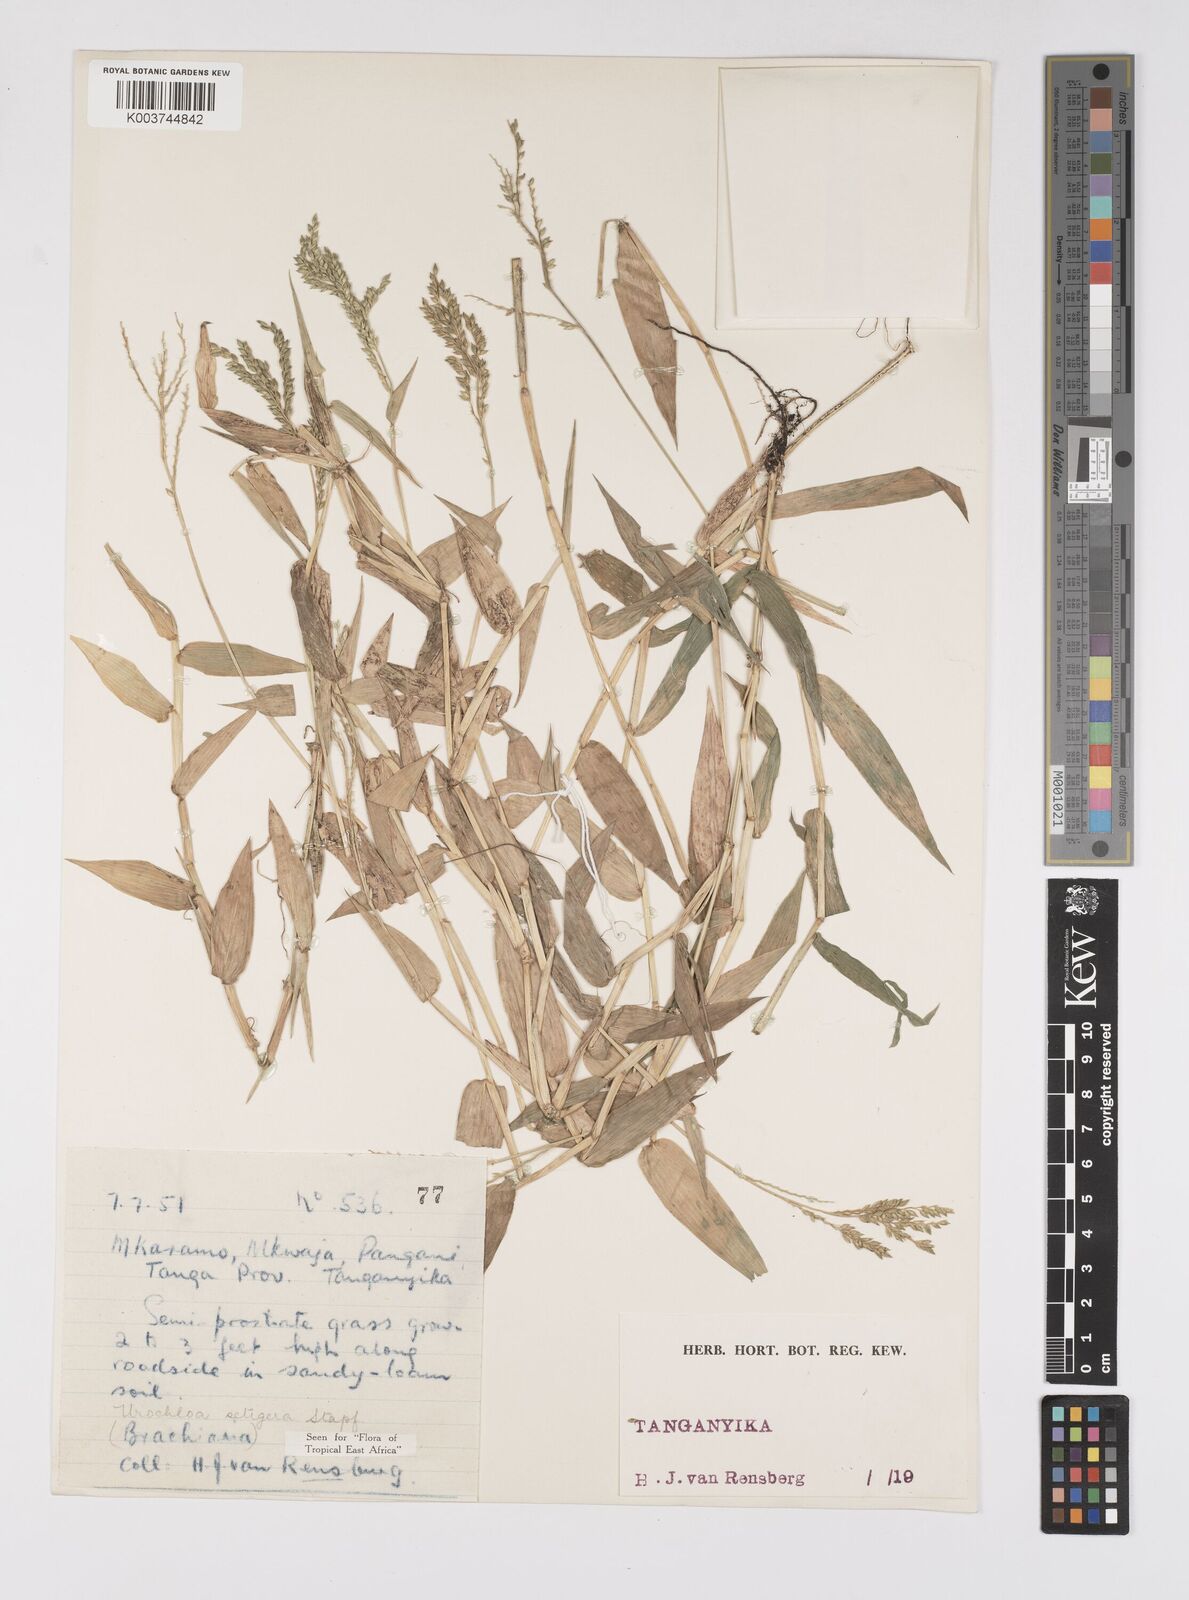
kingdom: Plantae
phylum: Tracheophyta
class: Liliopsida
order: Poales
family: Poaceae
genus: Urochloa
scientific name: Urochloa trichopodioides
